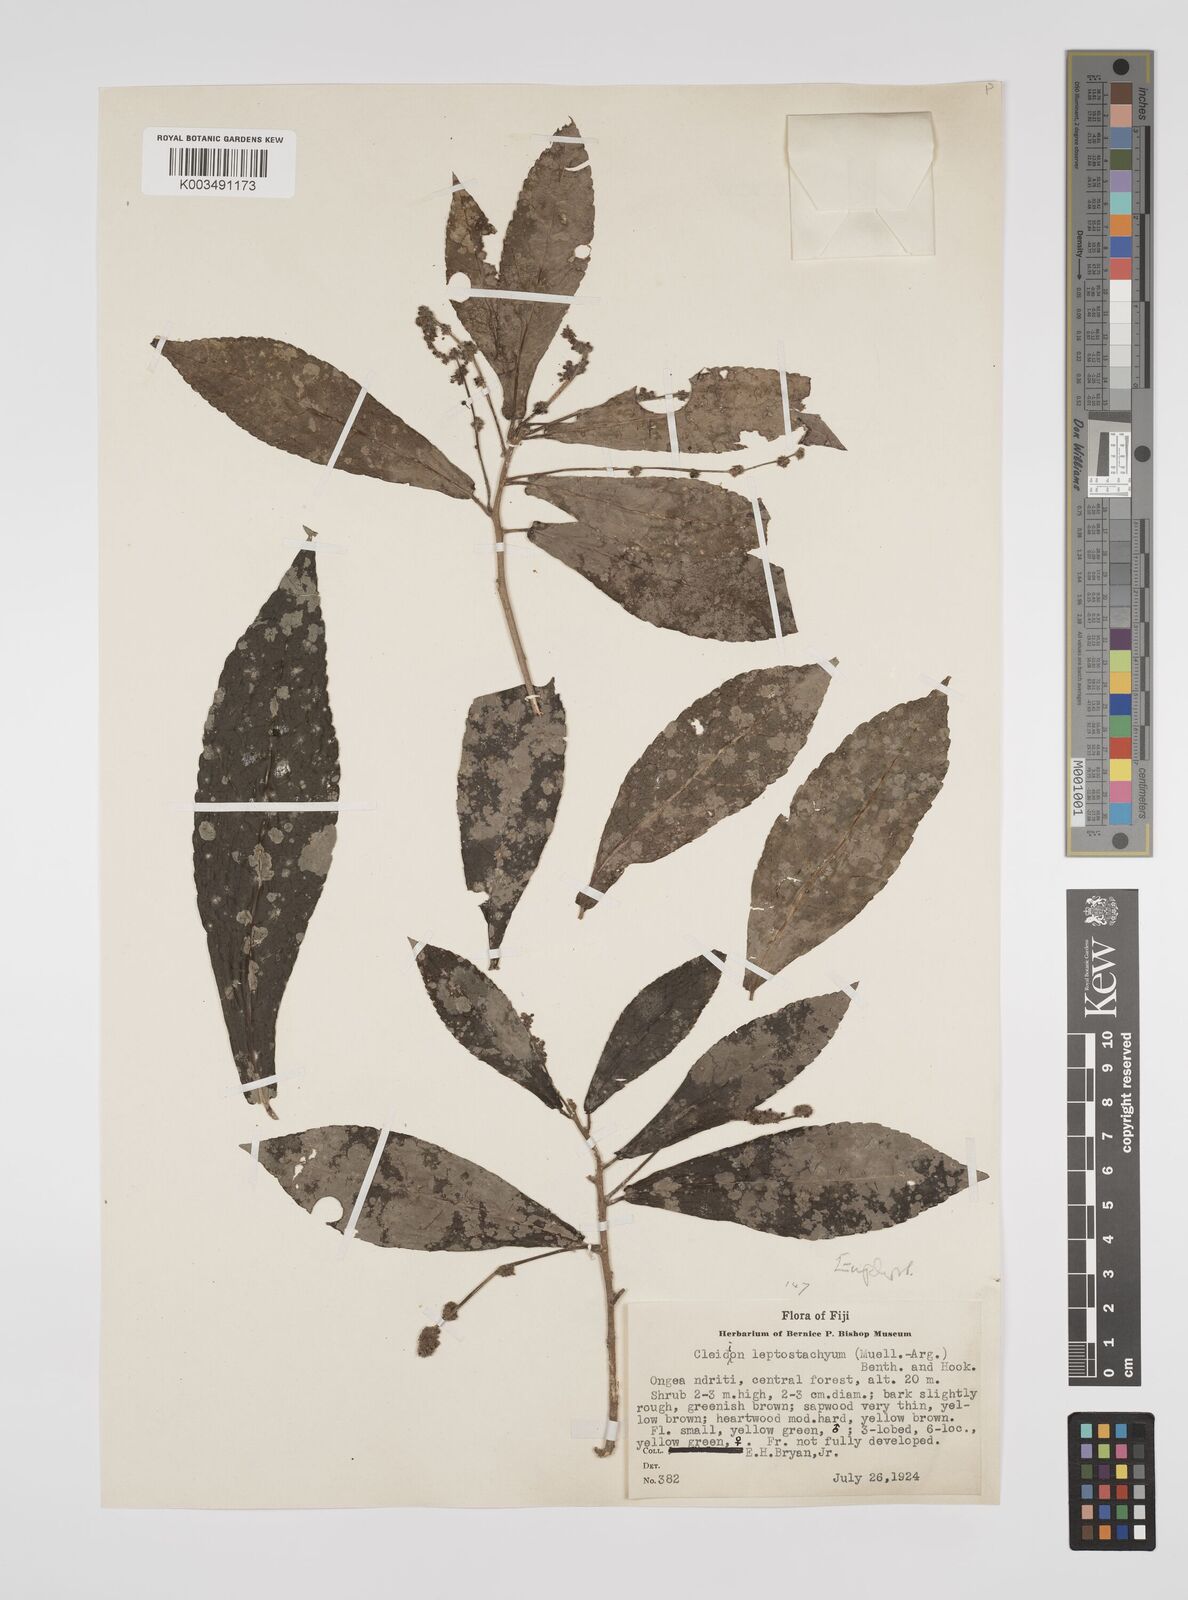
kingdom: Plantae
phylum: Tracheophyta
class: Magnoliopsida
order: Malpighiales
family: Euphorbiaceae
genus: Cleidion
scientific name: Cleidion leptostachyum
